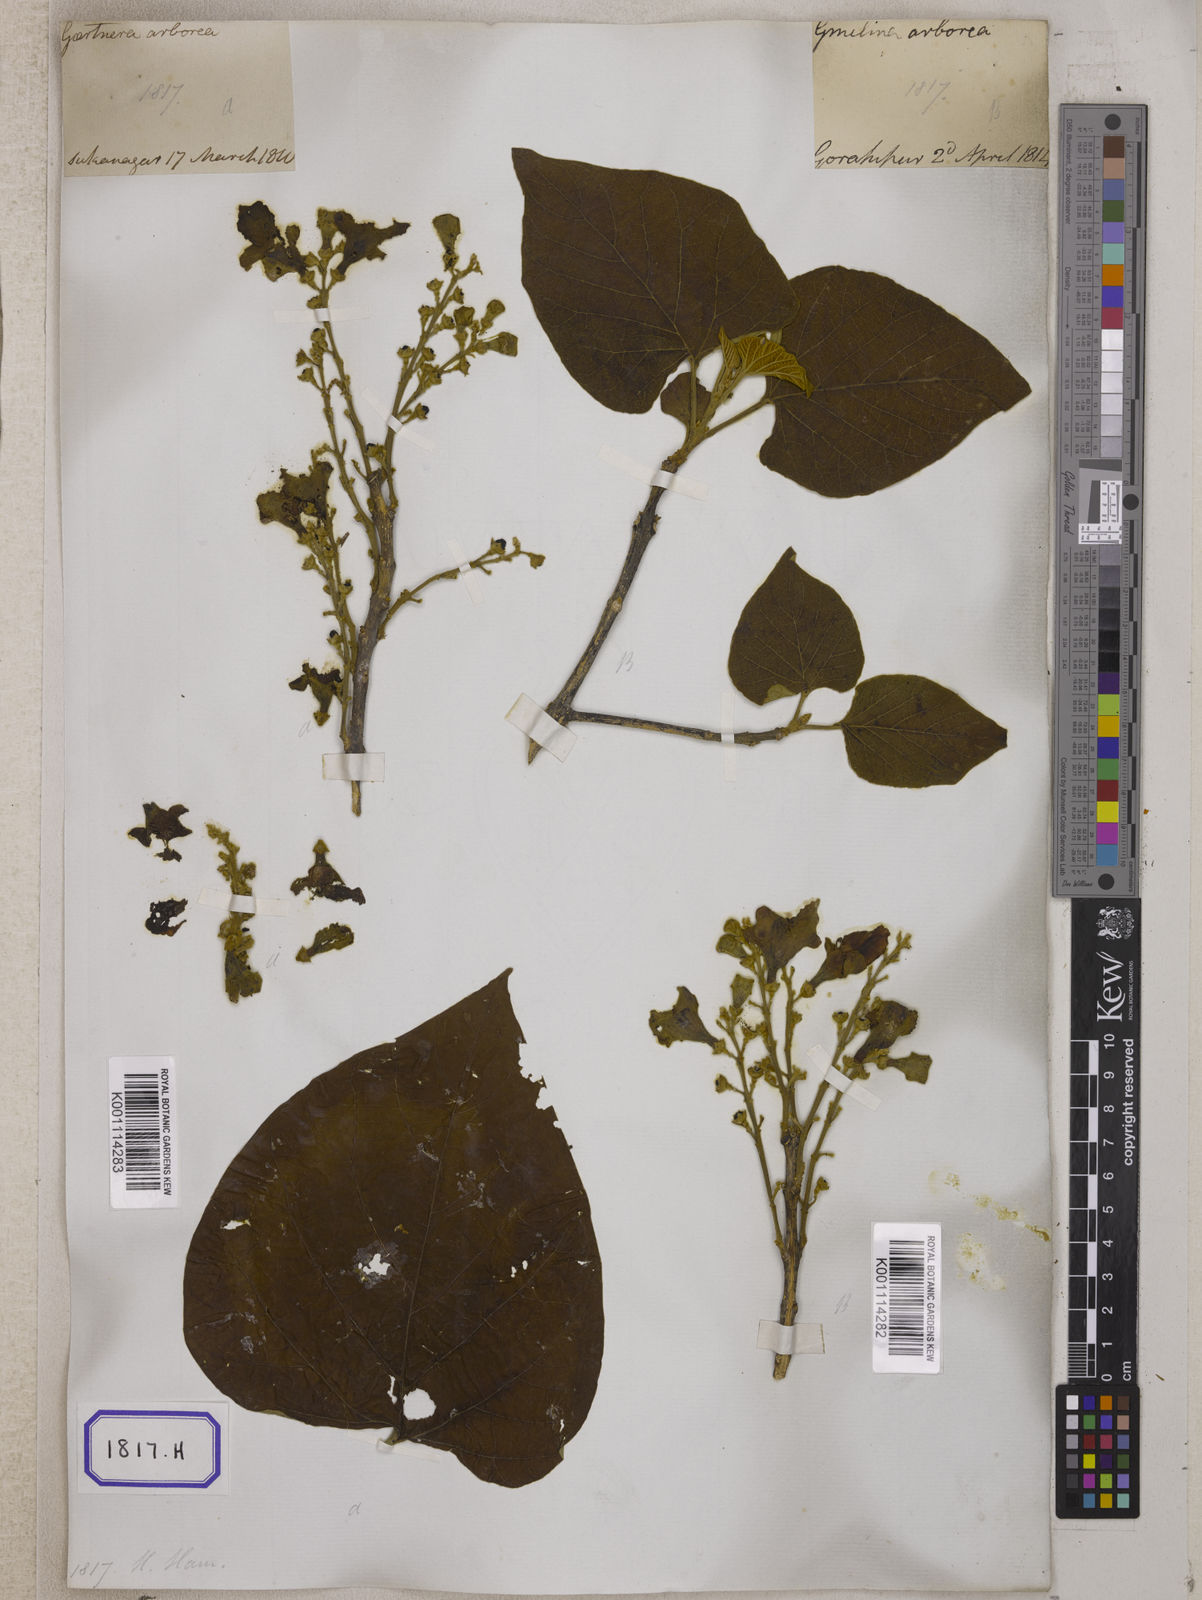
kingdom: Plantae
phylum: Tracheophyta
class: Magnoliopsida
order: Lamiales
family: Lamiaceae
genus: Gmelina
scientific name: Gmelina
